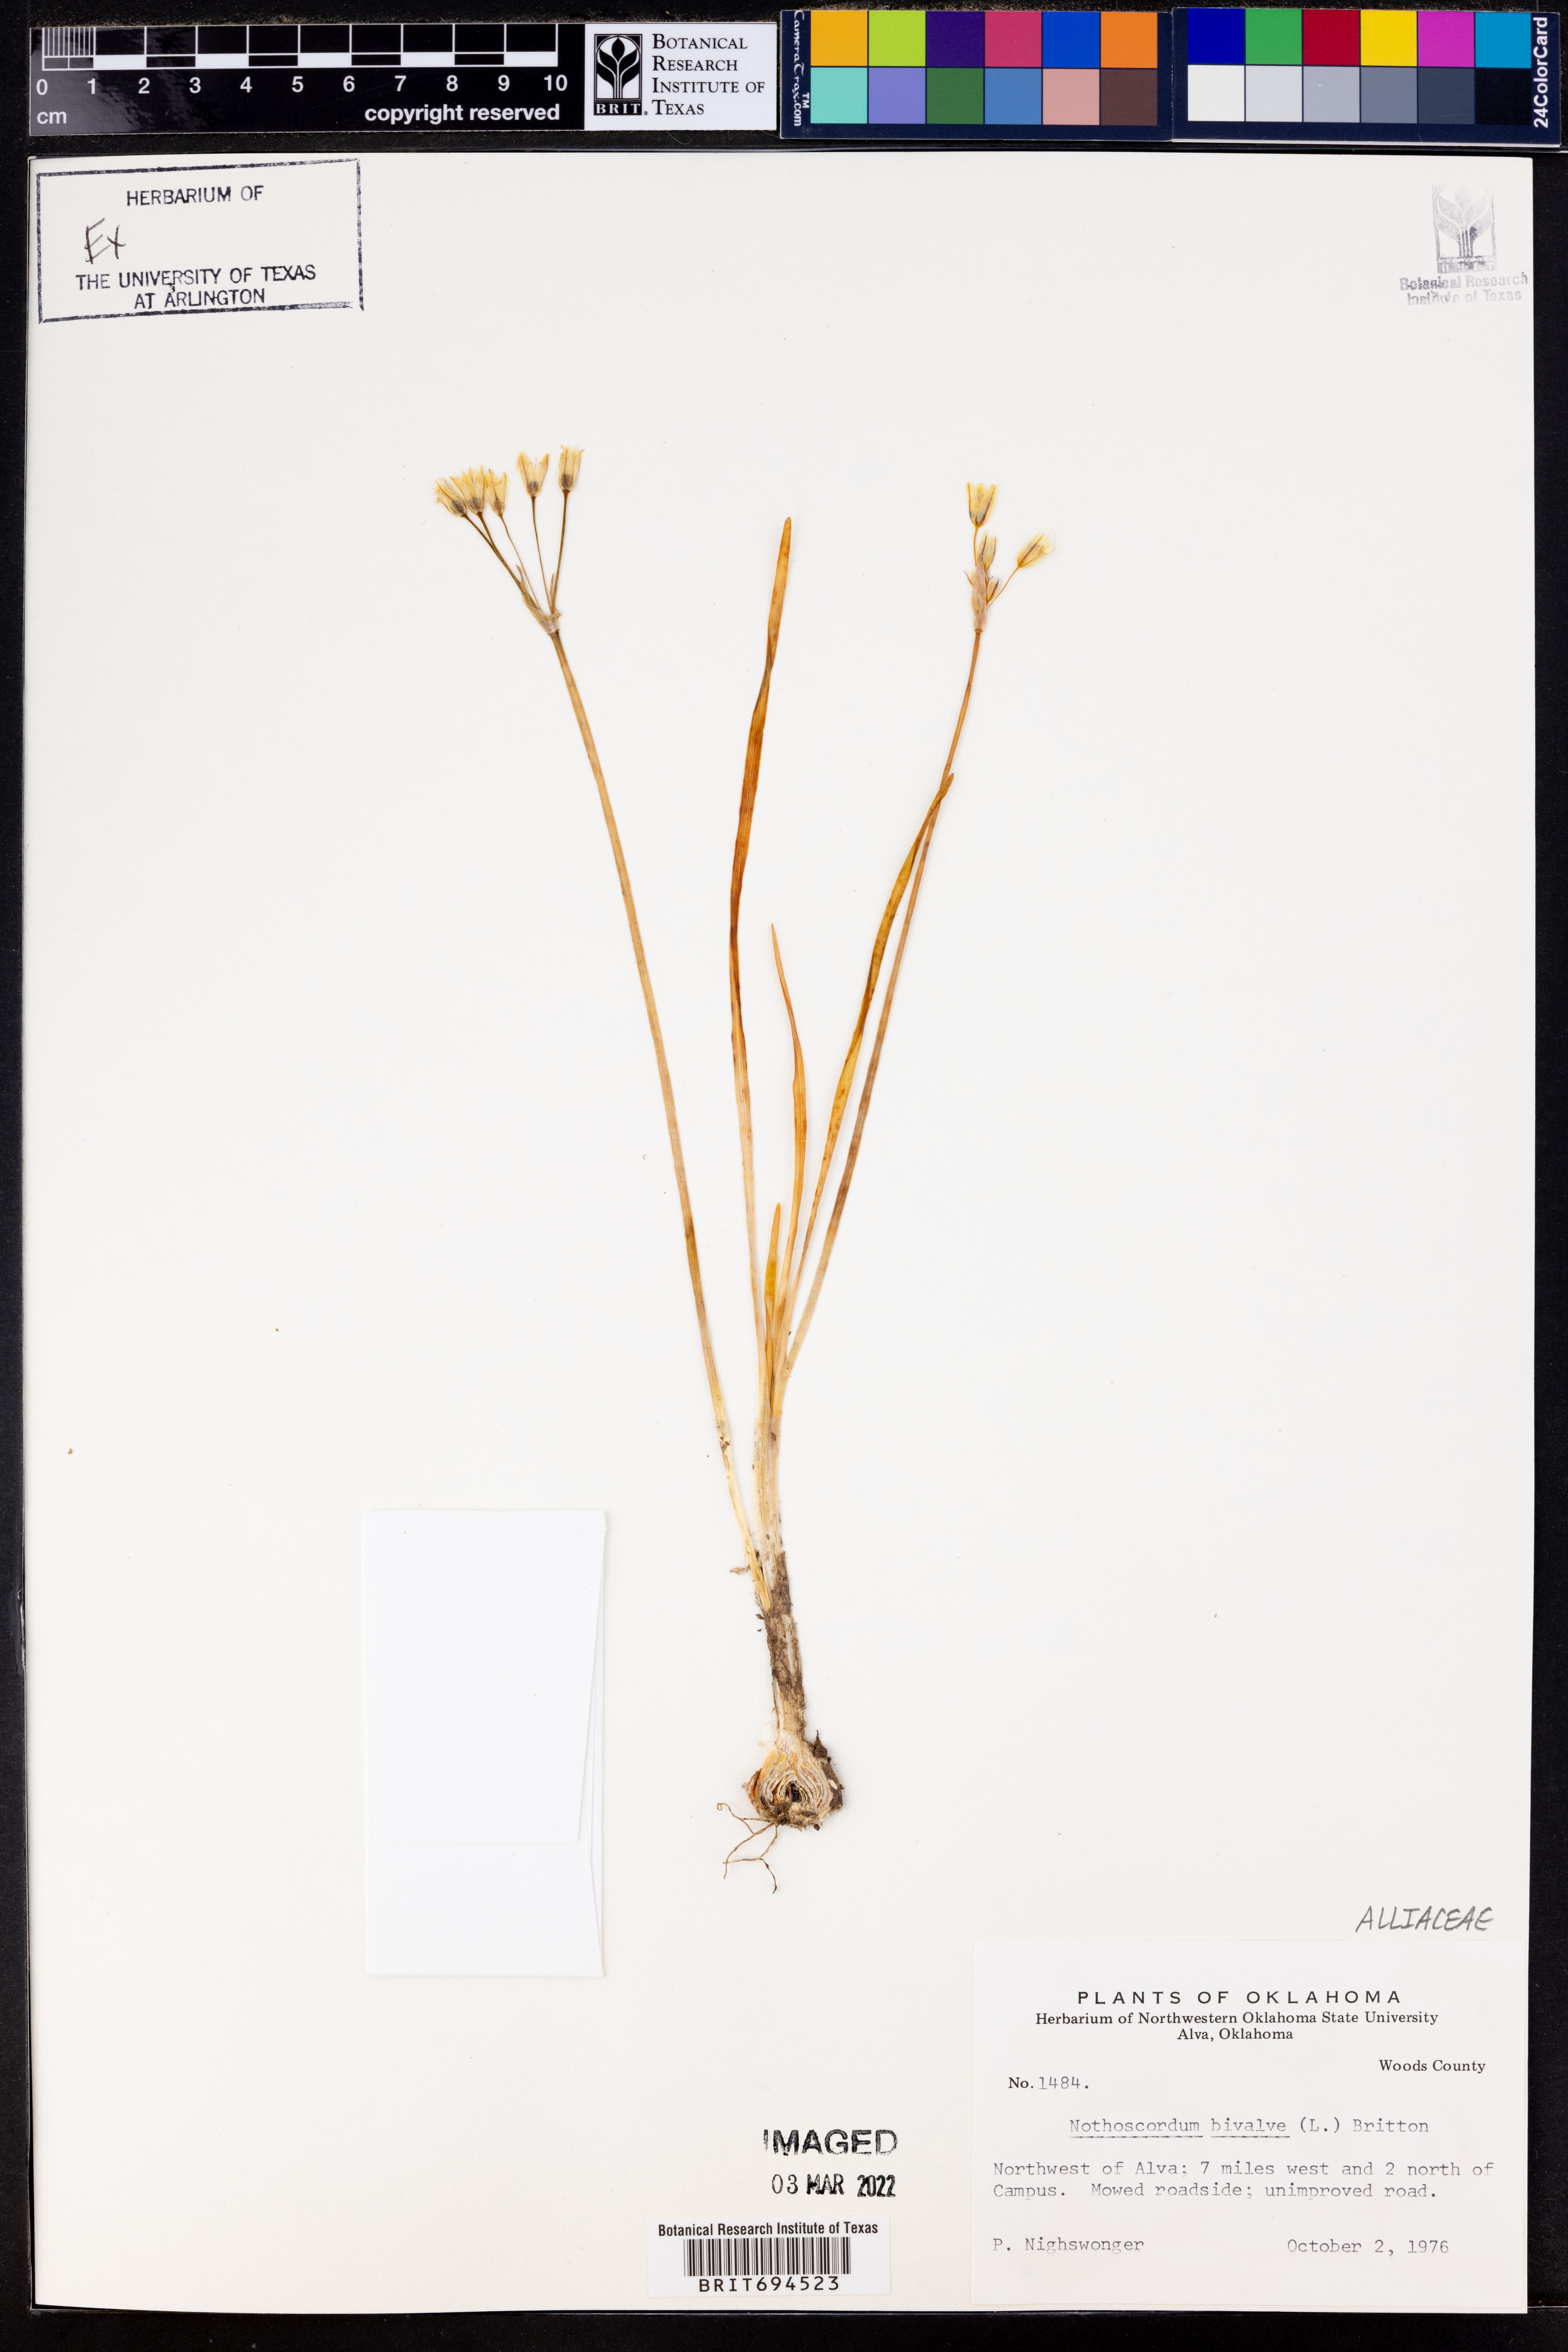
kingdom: Plantae
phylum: Tracheophyta
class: Liliopsida
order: Asparagales
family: Amaryllidaceae
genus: Nothoscordum
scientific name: Nothoscordum bivalve
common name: Crow-poison
